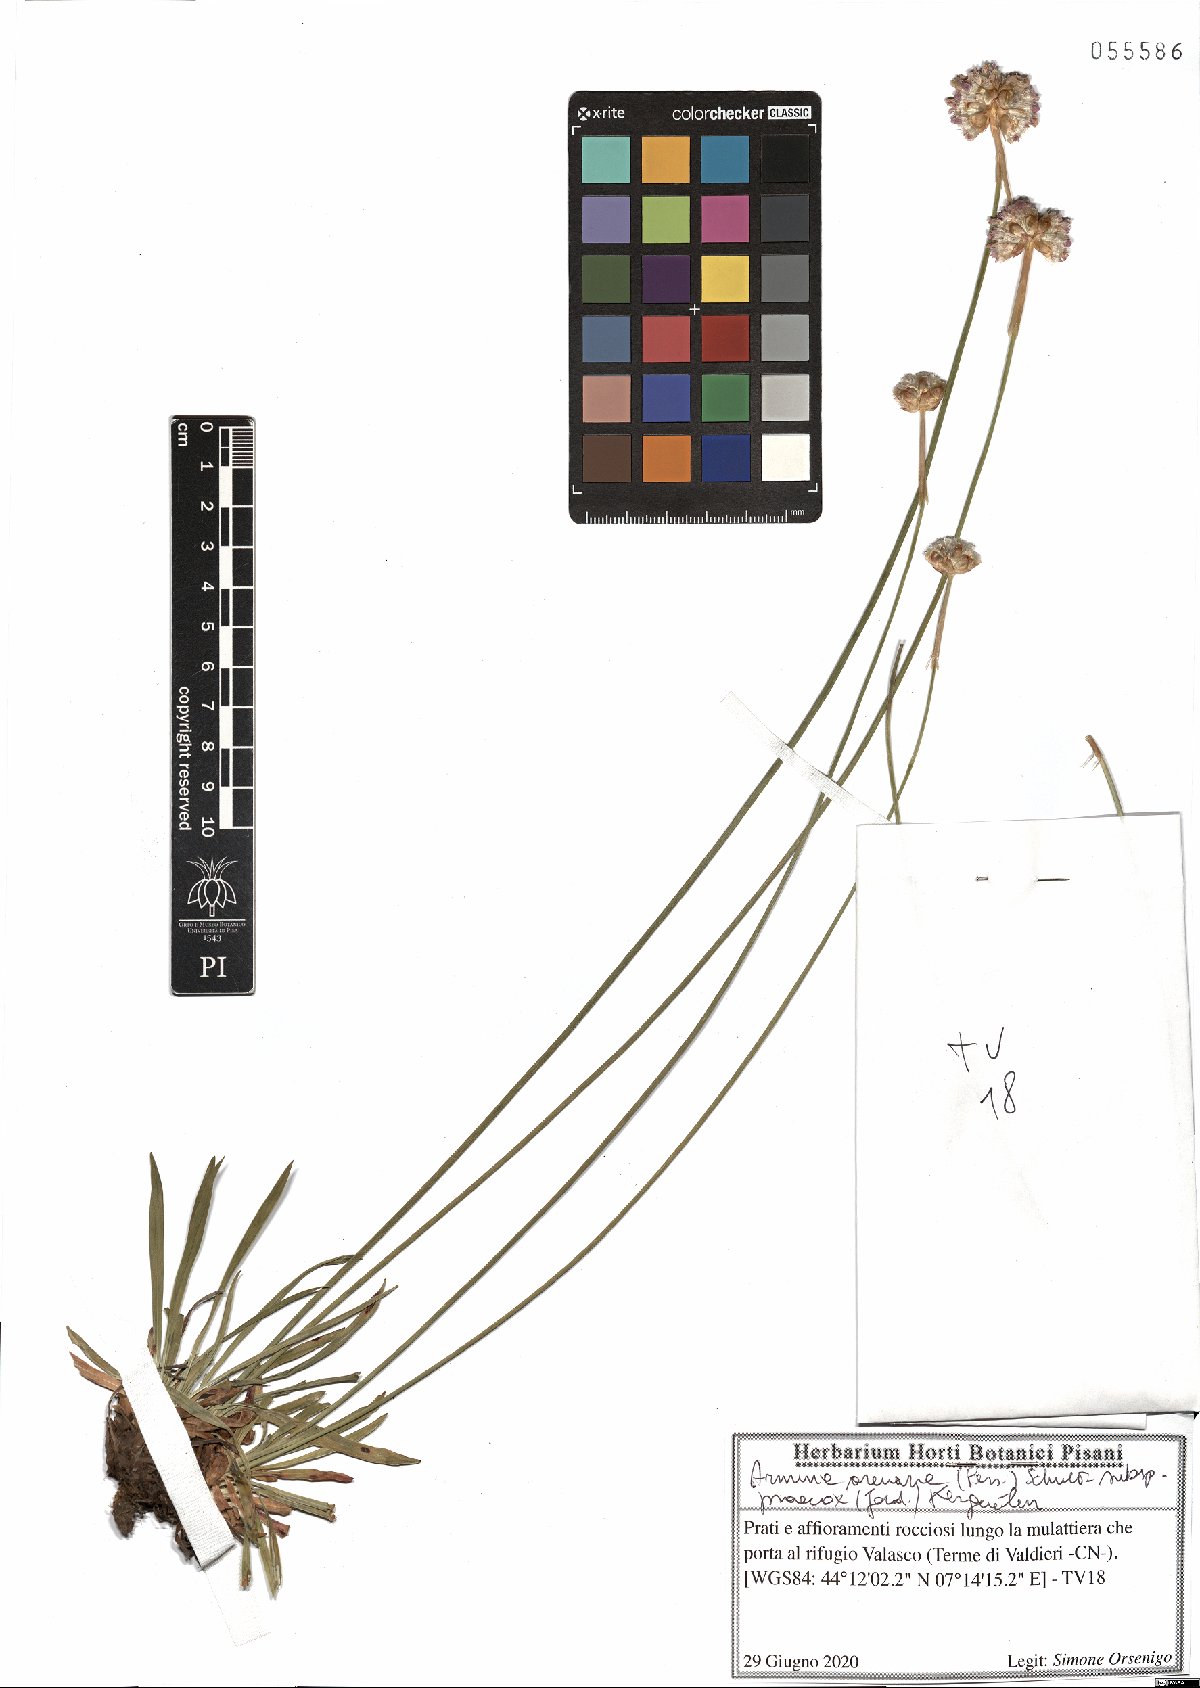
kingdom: Plantae
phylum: Tracheophyta
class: Magnoliopsida
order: Caryophyllales
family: Plumbaginaceae
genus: Armeria
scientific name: Armeria arenaria
